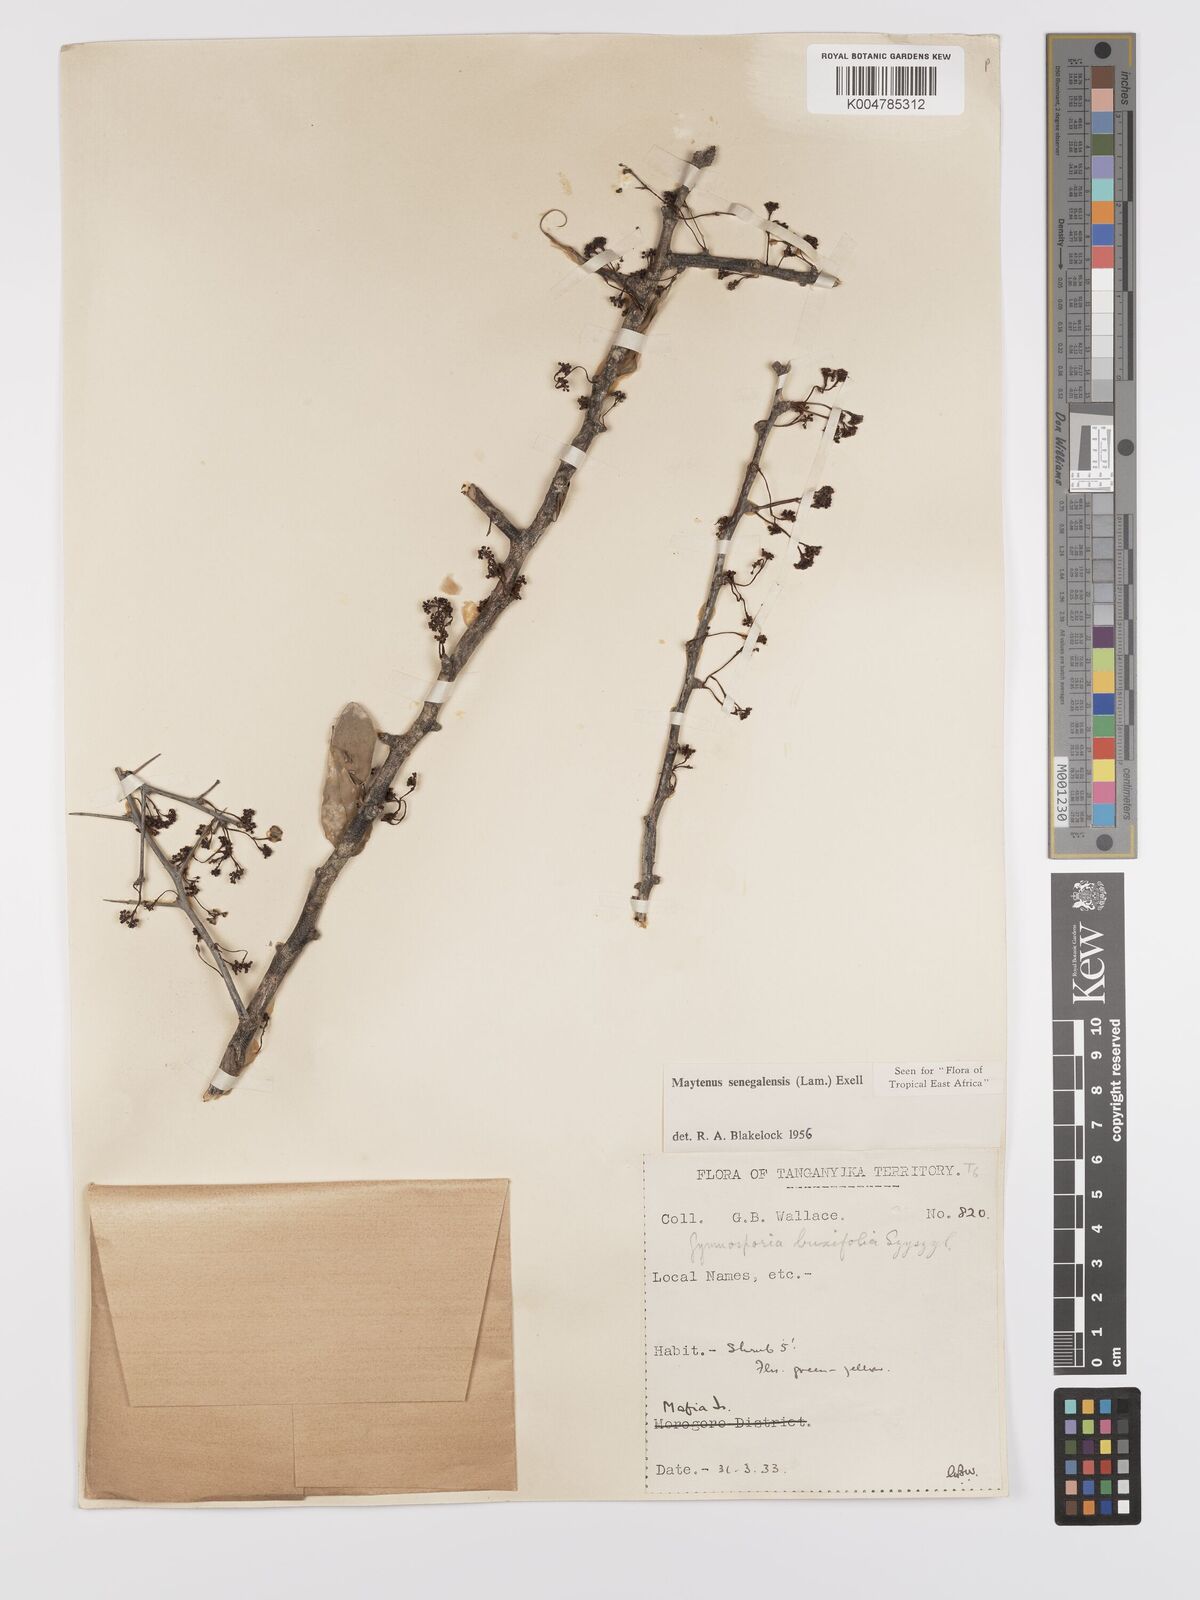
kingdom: Plantae
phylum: Tracheophyta
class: Magnoliopsida
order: Celastrales
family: Celastraceae
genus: Gymnosporia
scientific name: Gymnosporia heterophylla
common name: Angle-stem spikethorn
